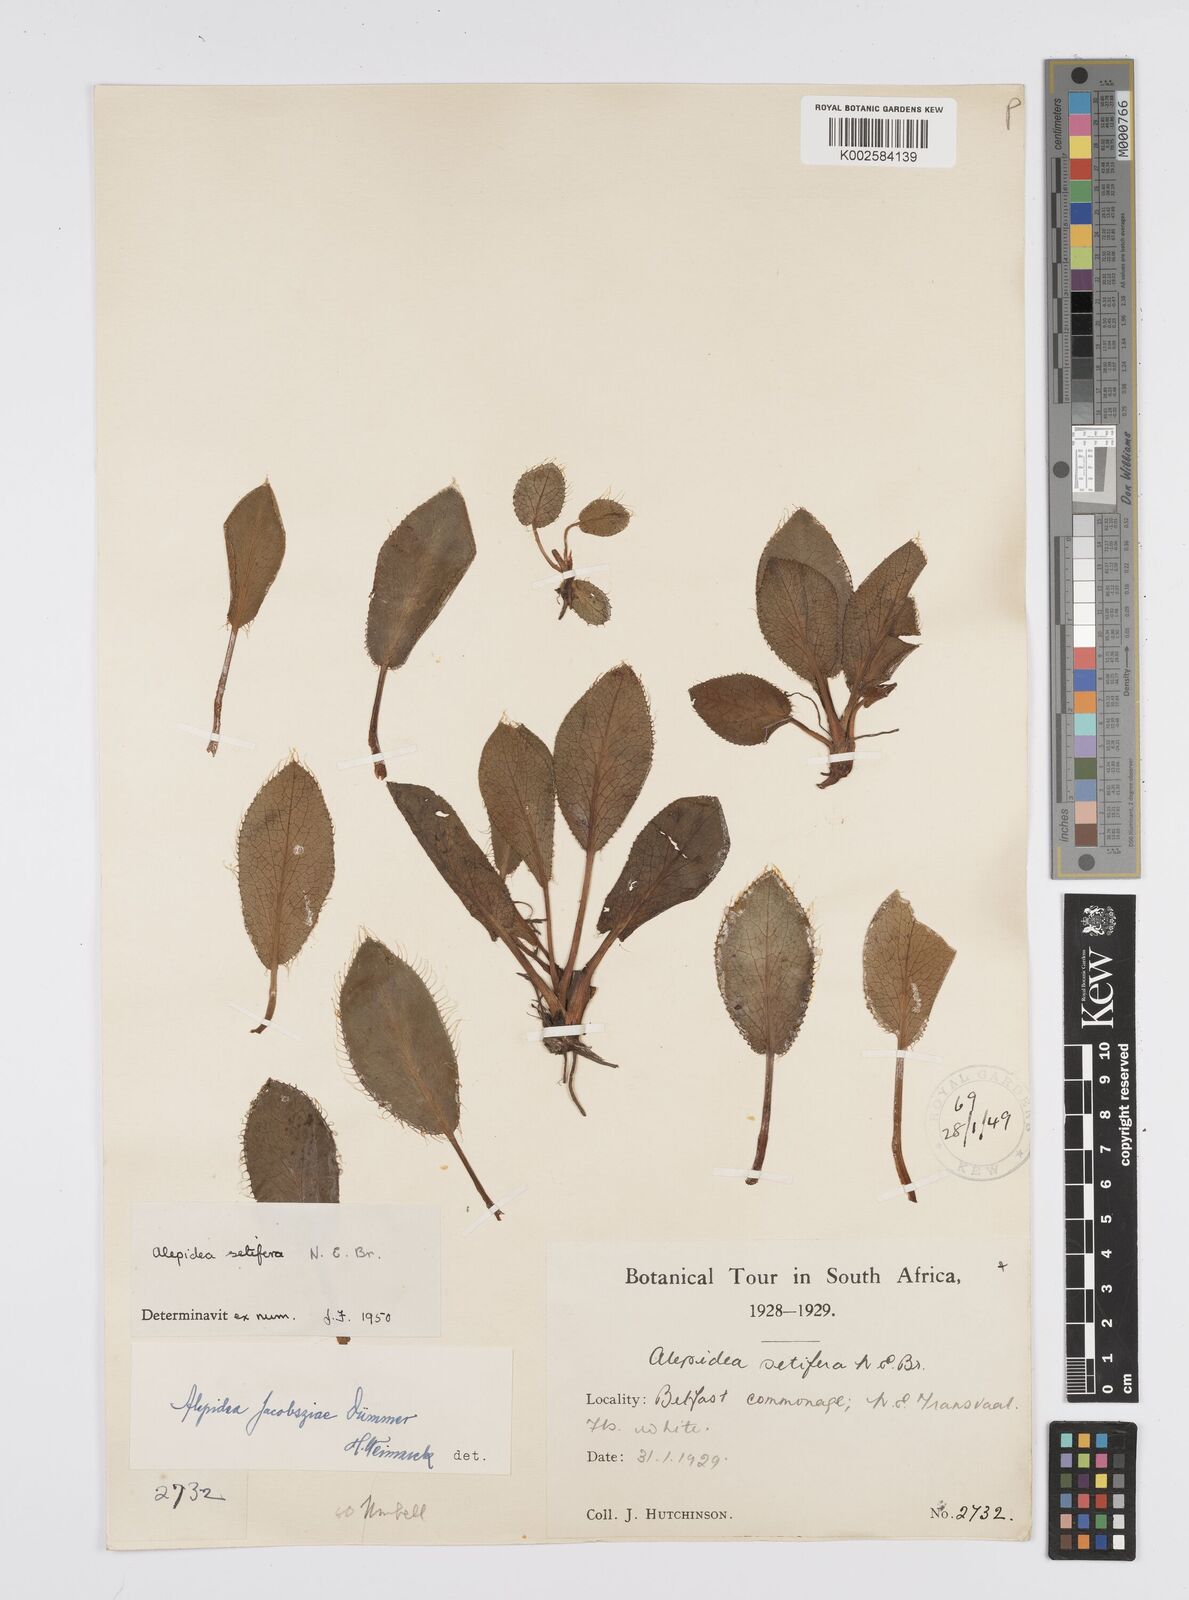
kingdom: Plantae
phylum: Tracheophyta
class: Magnoliopsida
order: Apiales
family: Apiaceae
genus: Alepidea
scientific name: Alepidea setifera
